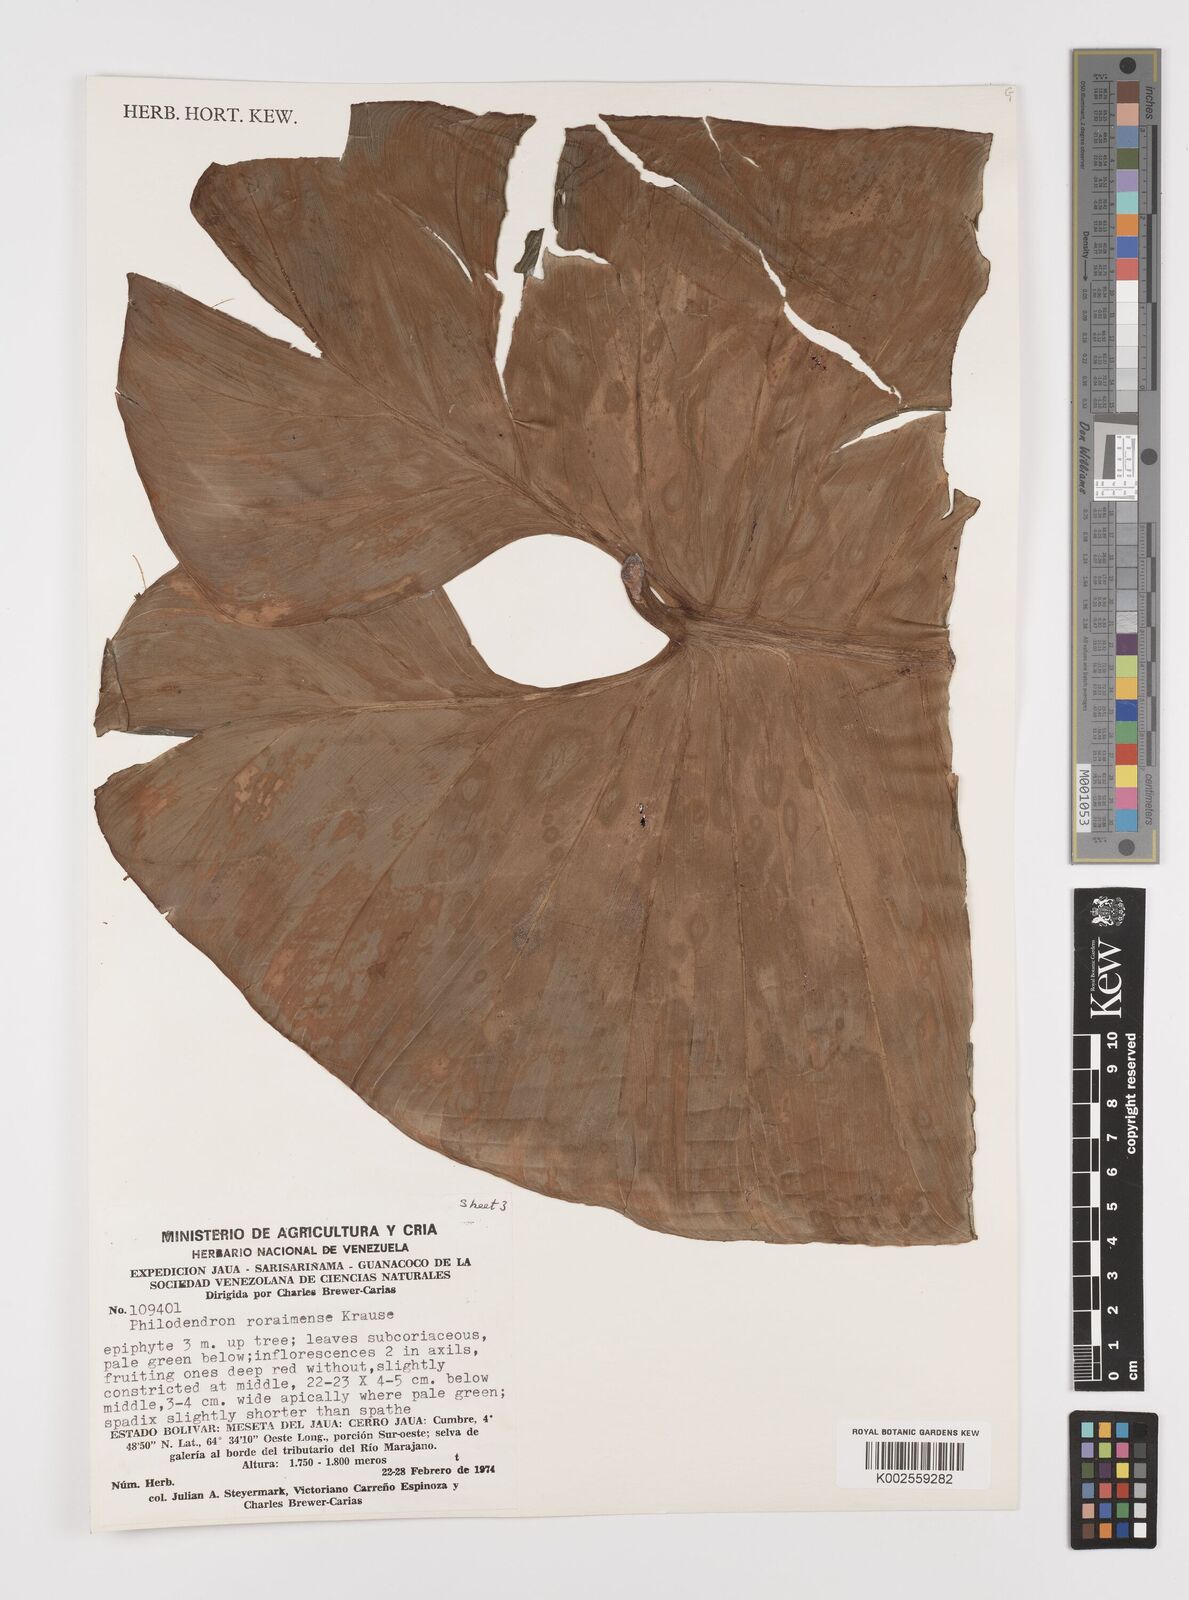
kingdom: Plantae
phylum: Tracheophyta
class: Liliopsida
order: Alismatales
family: Araceae
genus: Philodendron
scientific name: Philodendron roraimae
